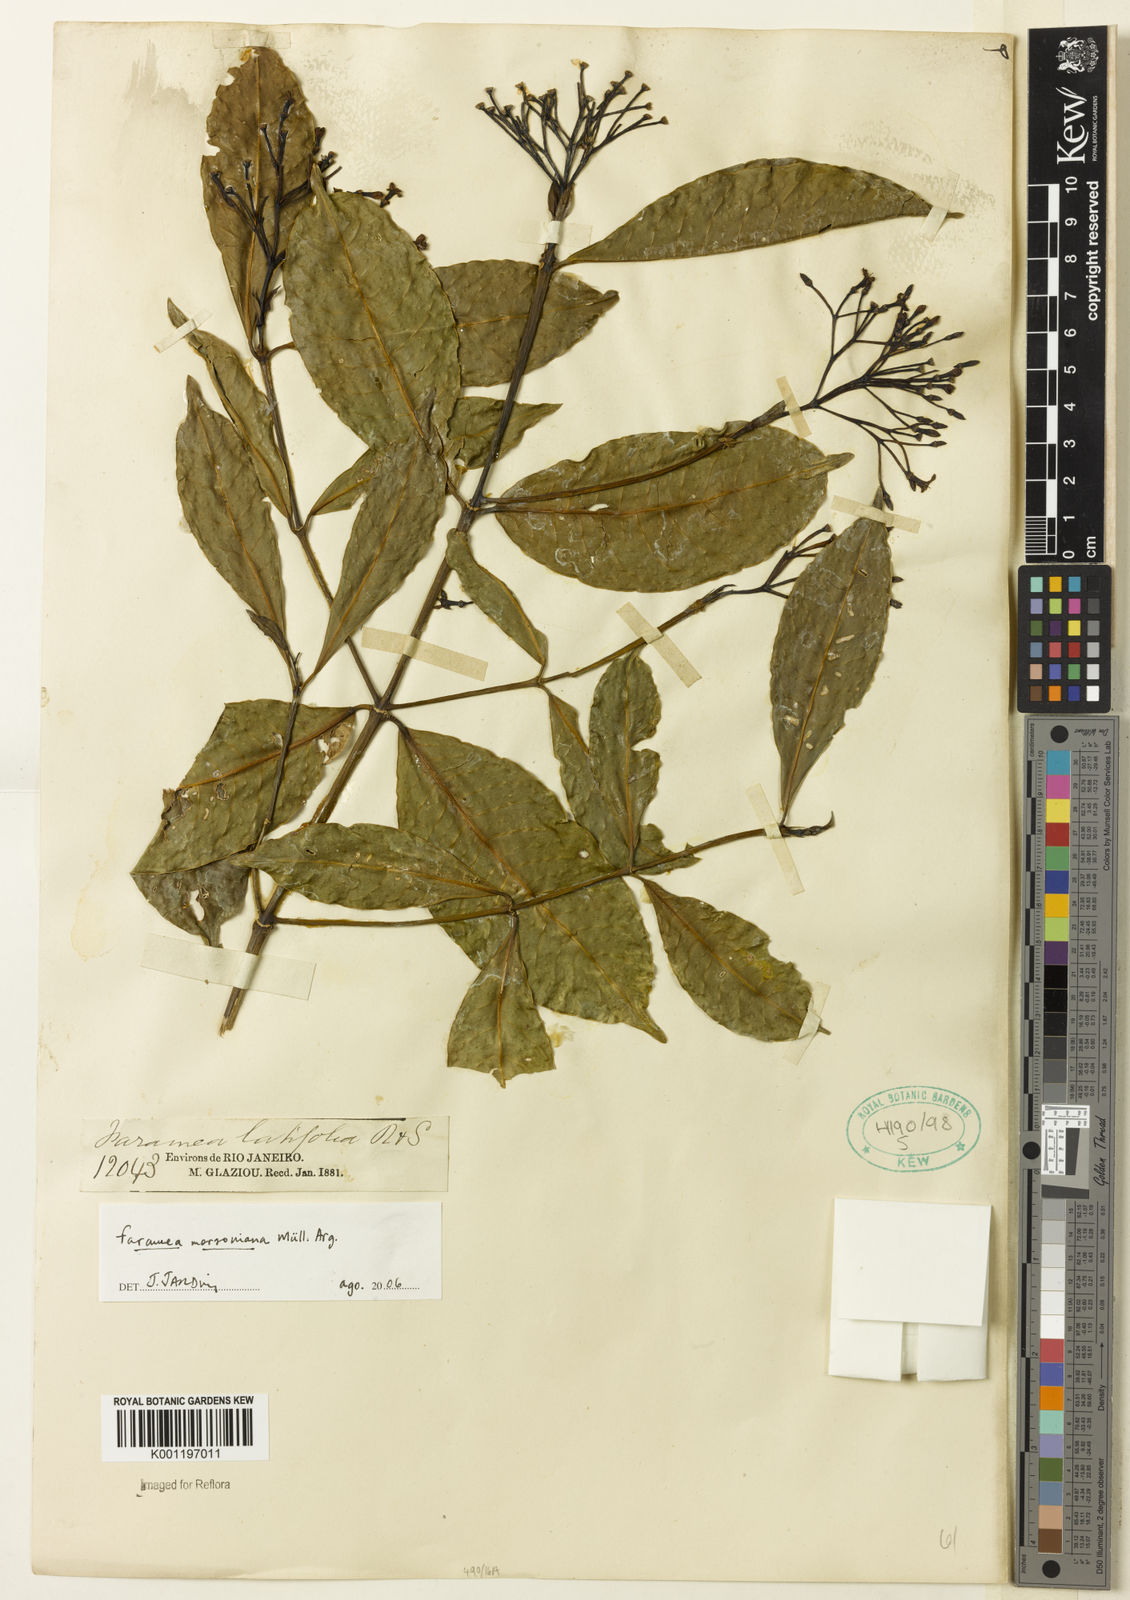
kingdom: Plantae
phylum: Tracheophyta
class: Magnoliopsida
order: Gentianales
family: Rubiaceae
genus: Faramea
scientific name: Faramea
